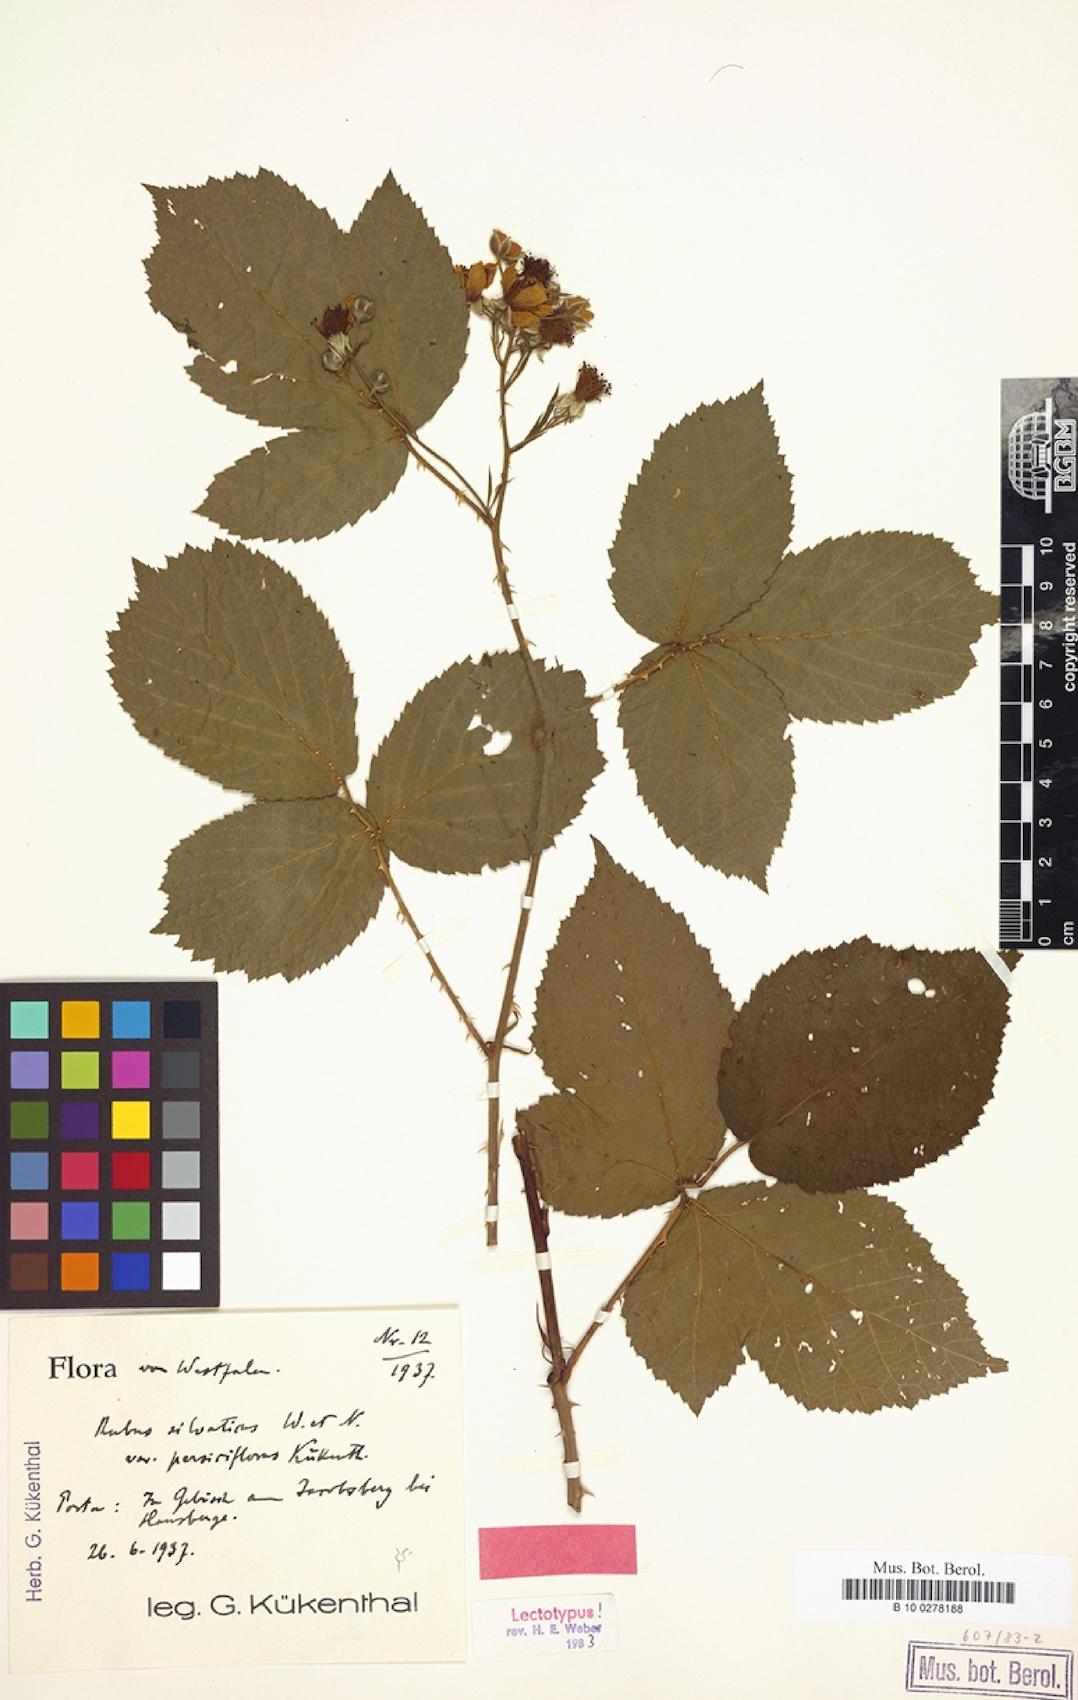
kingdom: Plantae
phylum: Tracheophyta
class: Magnoliopsida
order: Rosales
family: Rosaceae
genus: Rubus
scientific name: Rubus silvaticus
